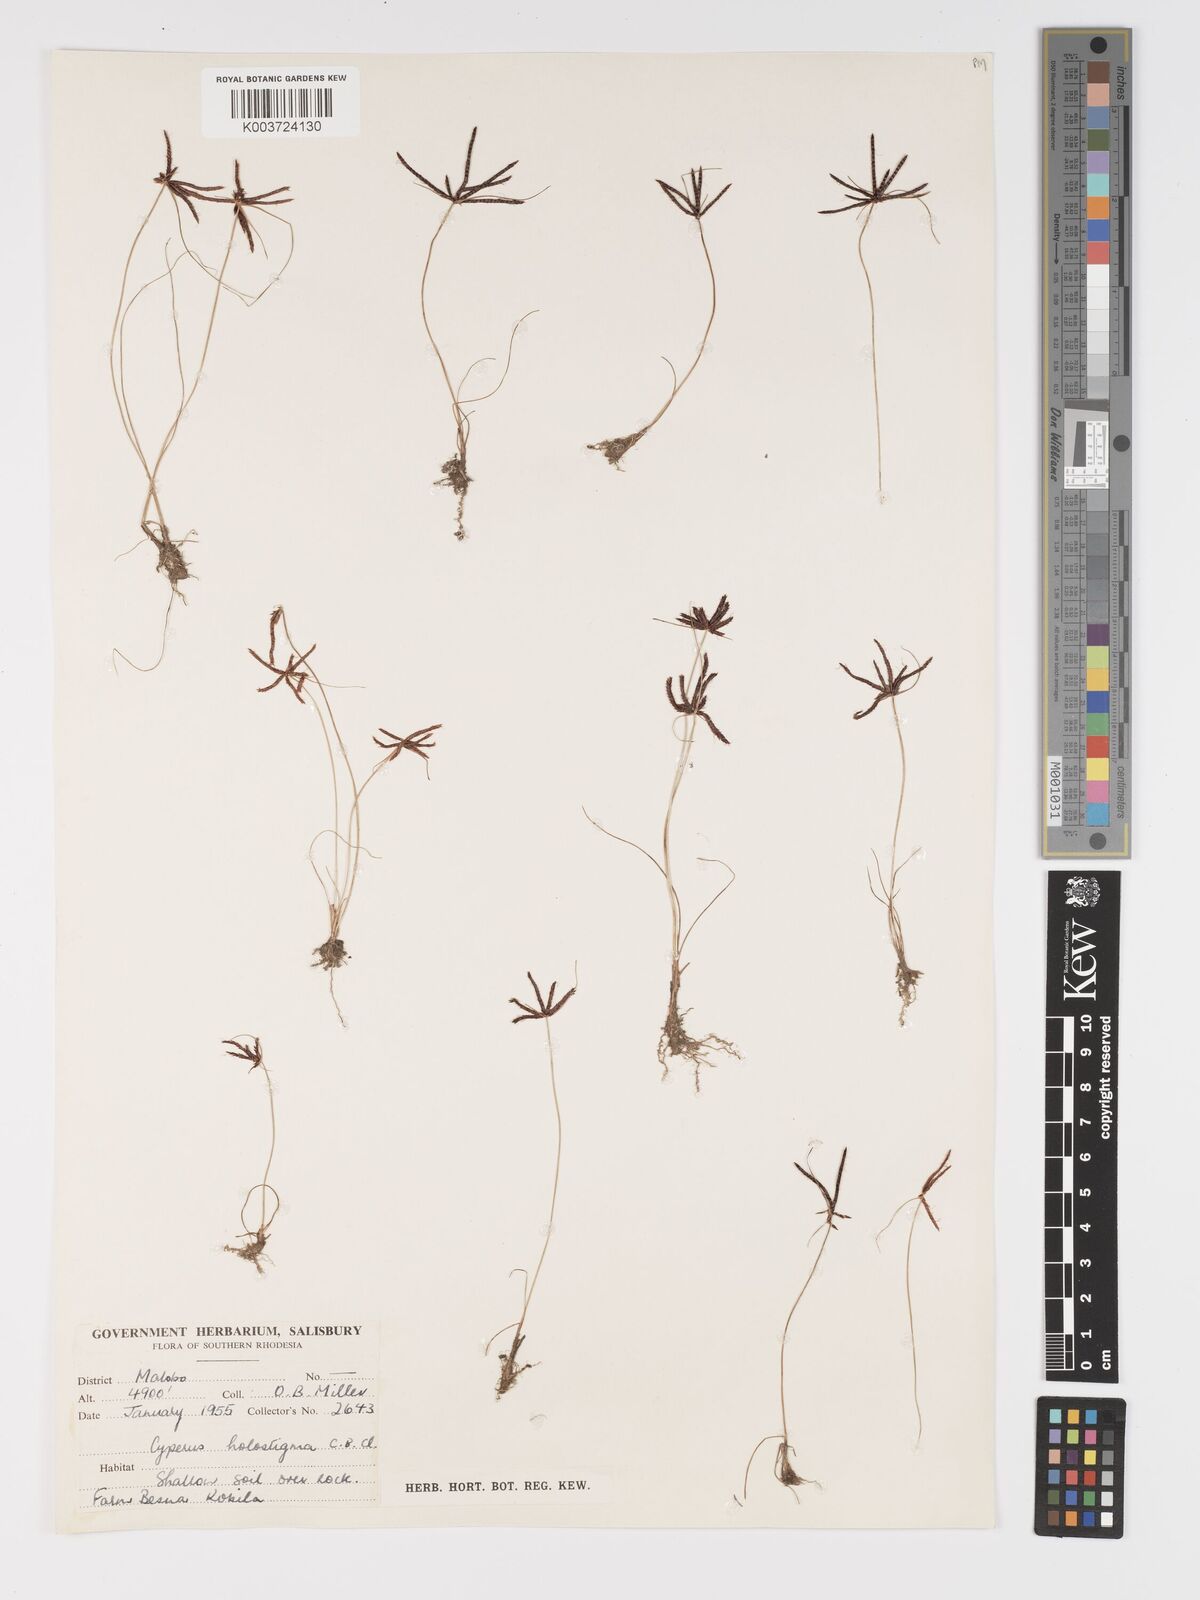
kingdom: Plantae
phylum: Tracheophyta
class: Liliopsida
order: Poales
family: Cyperaceae
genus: Cyperus
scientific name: Cyperus holostigma
